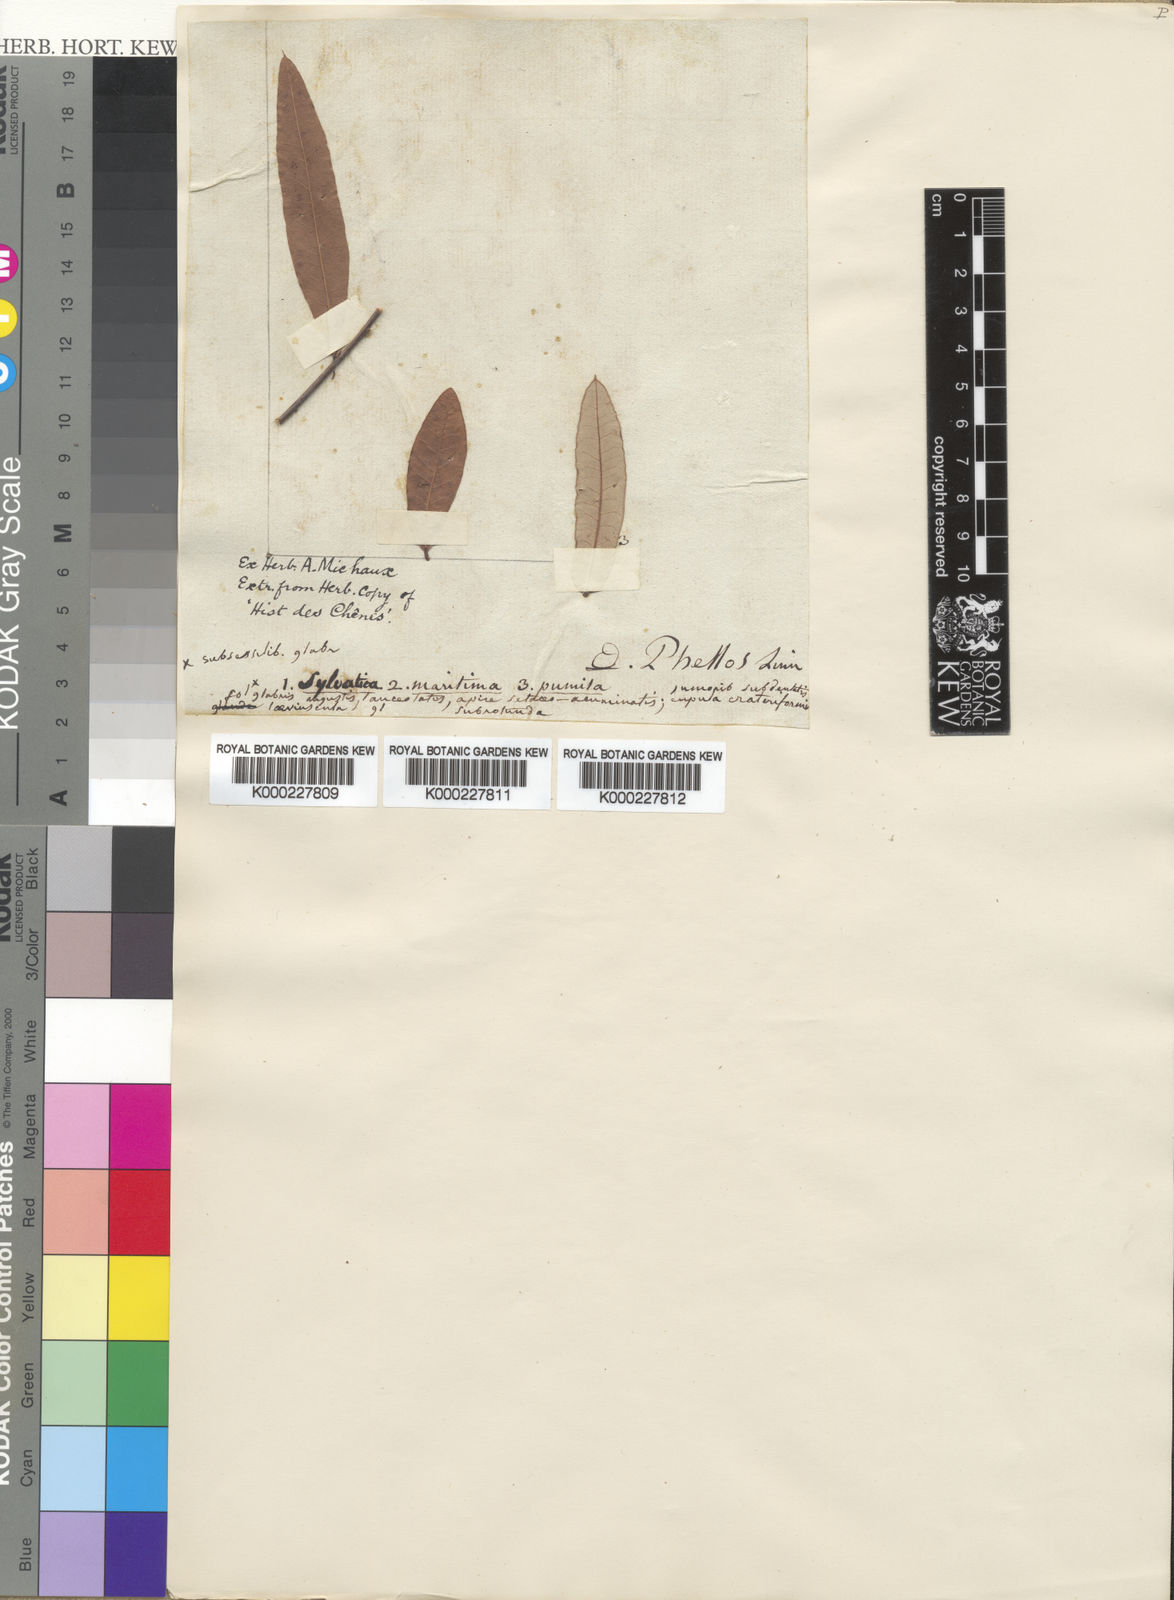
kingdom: Plantae
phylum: Tracheophyta
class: Magnoliopsida
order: Fagales
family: Fagaceae
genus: Quercus
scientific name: Quercus phellos
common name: Willow oak
